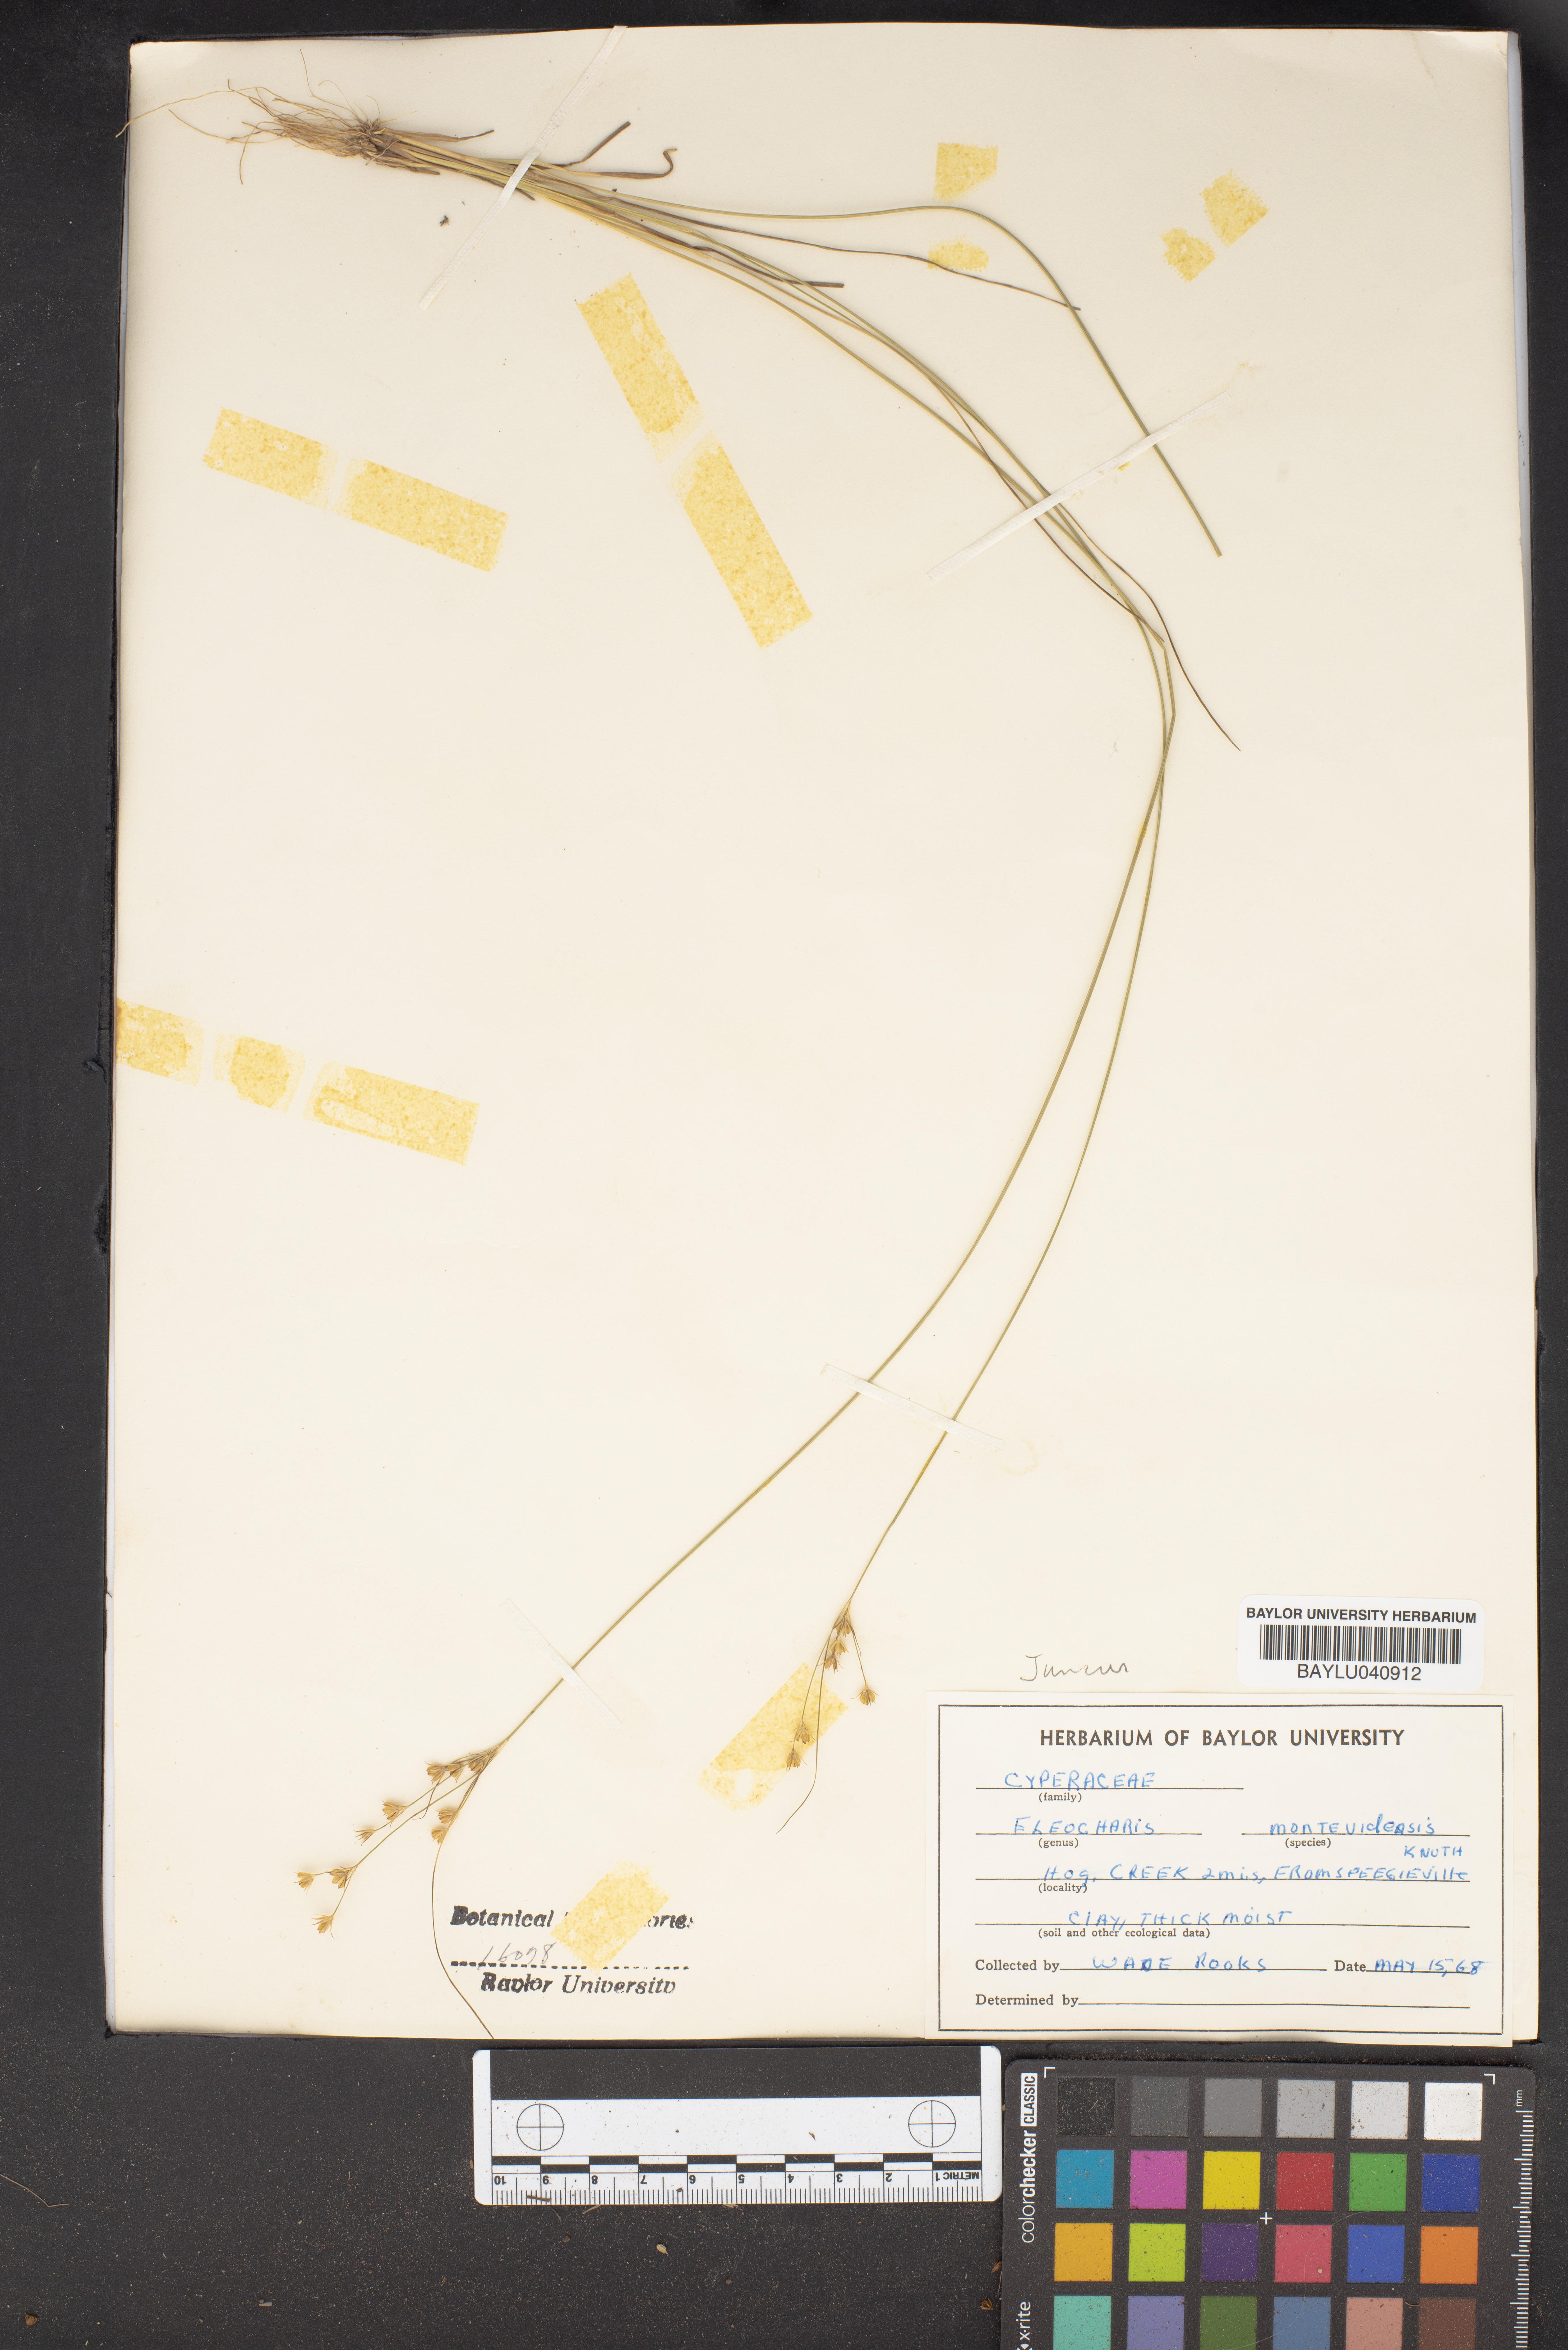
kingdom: Plantae
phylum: Tracheophyta
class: Liliopsida
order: Poales
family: Cyperaceae
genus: Eleocharis
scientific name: Eleocharis montevidensis
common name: Sand spike-rush
